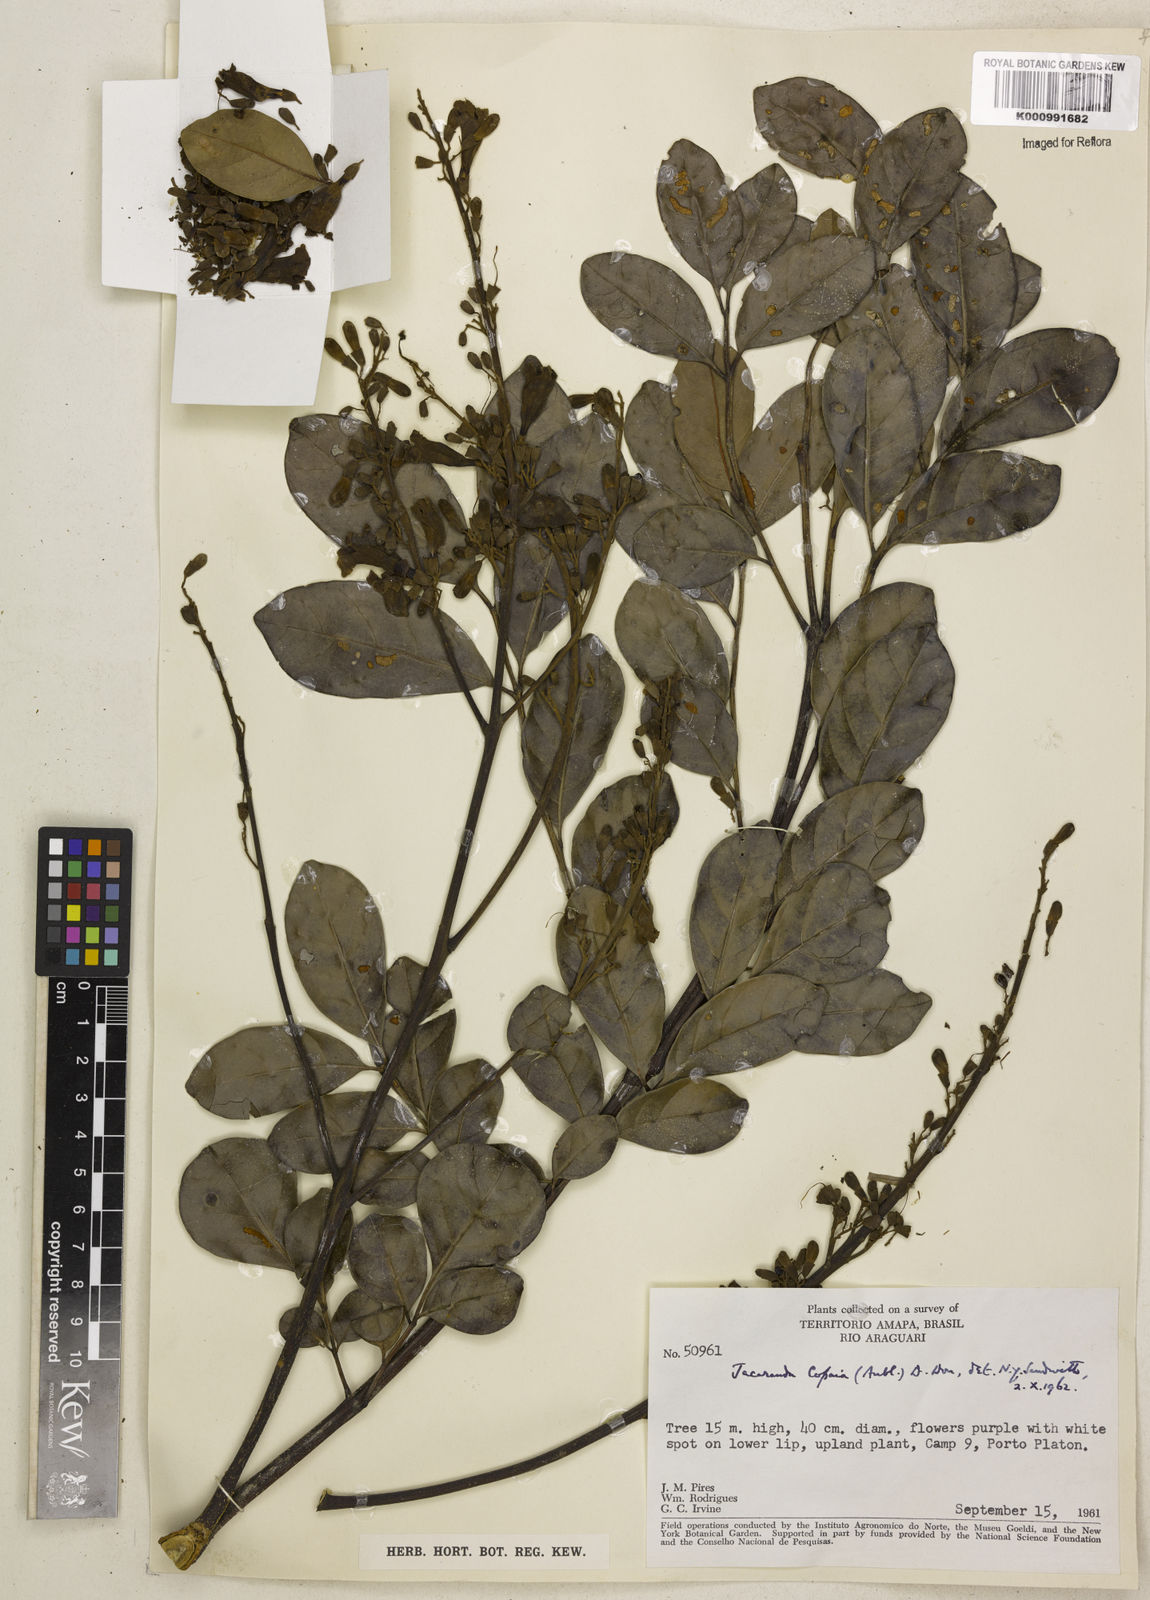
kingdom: Plantae
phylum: Tracheophyta
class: Magnoliopsida
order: Lamiales
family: Bignoniaceae
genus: Jacaranda
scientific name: Jacaranda
